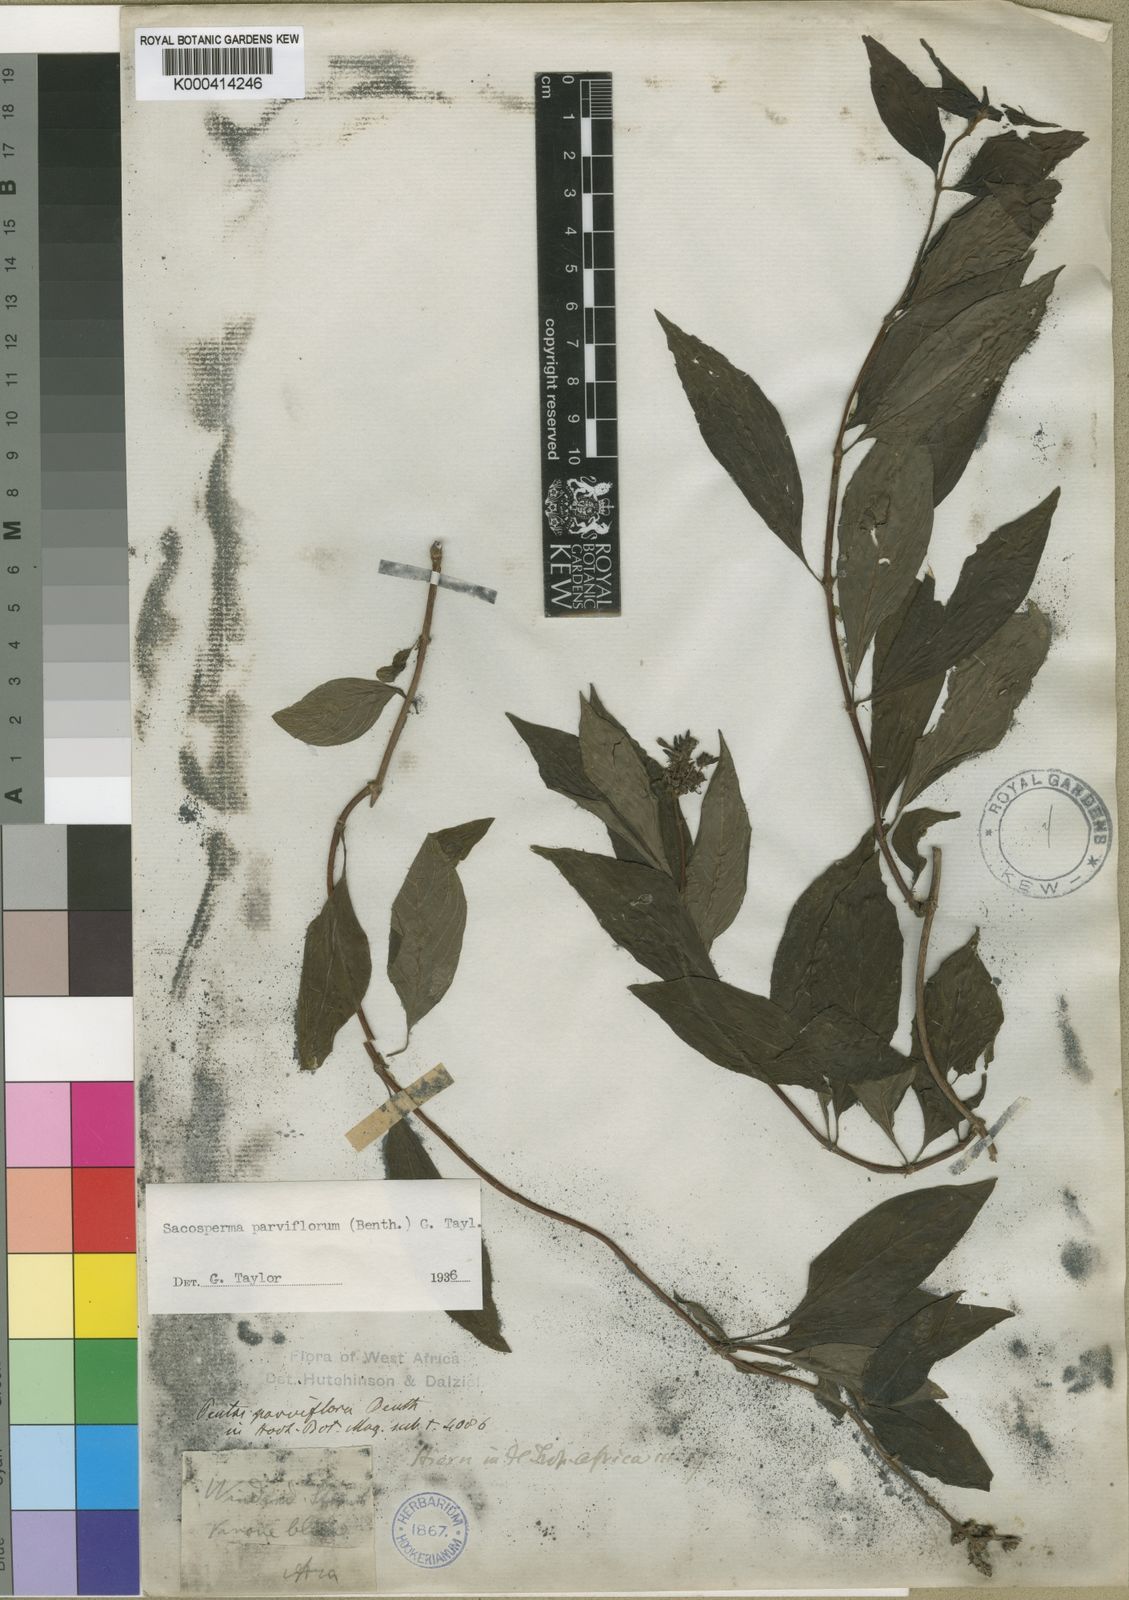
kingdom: Plantae
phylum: Tracheophyta
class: Magnoliopsida
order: Gentianales
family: Rubiaceae
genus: Sacosperma
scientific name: Sacosperma parviflorum
